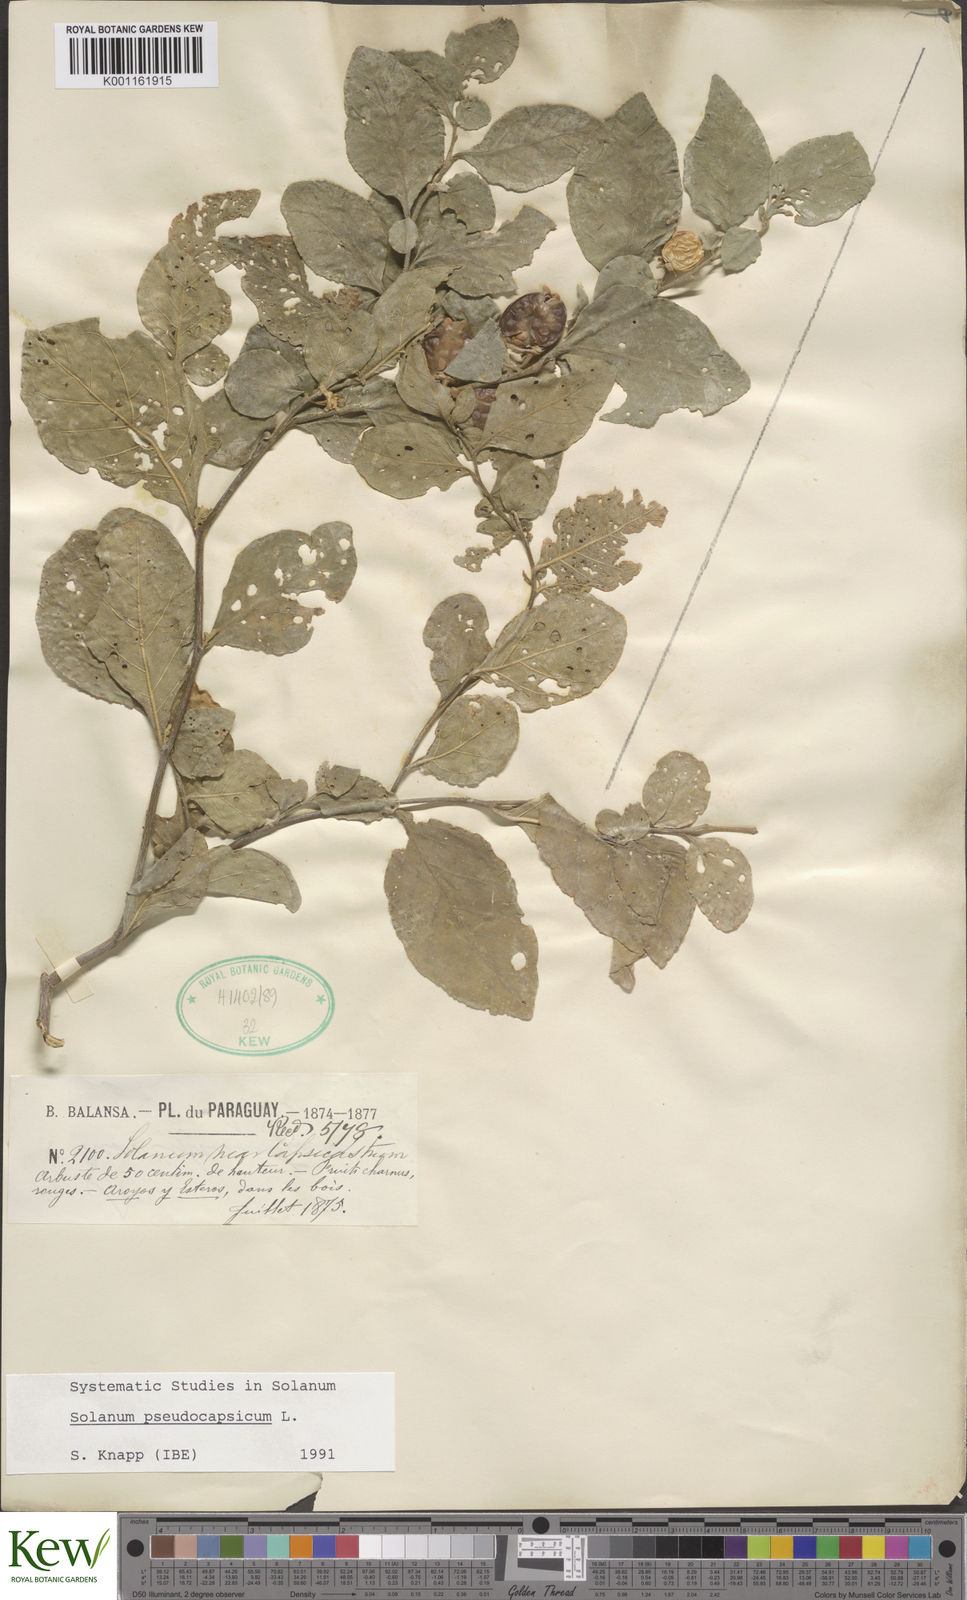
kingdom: Plantae
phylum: Tracheophyta
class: Magnoliopsida
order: Solanales
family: Solanaceae
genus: Solanum
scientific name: Solanum pseudocapsicum
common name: Jerusalem cherry
